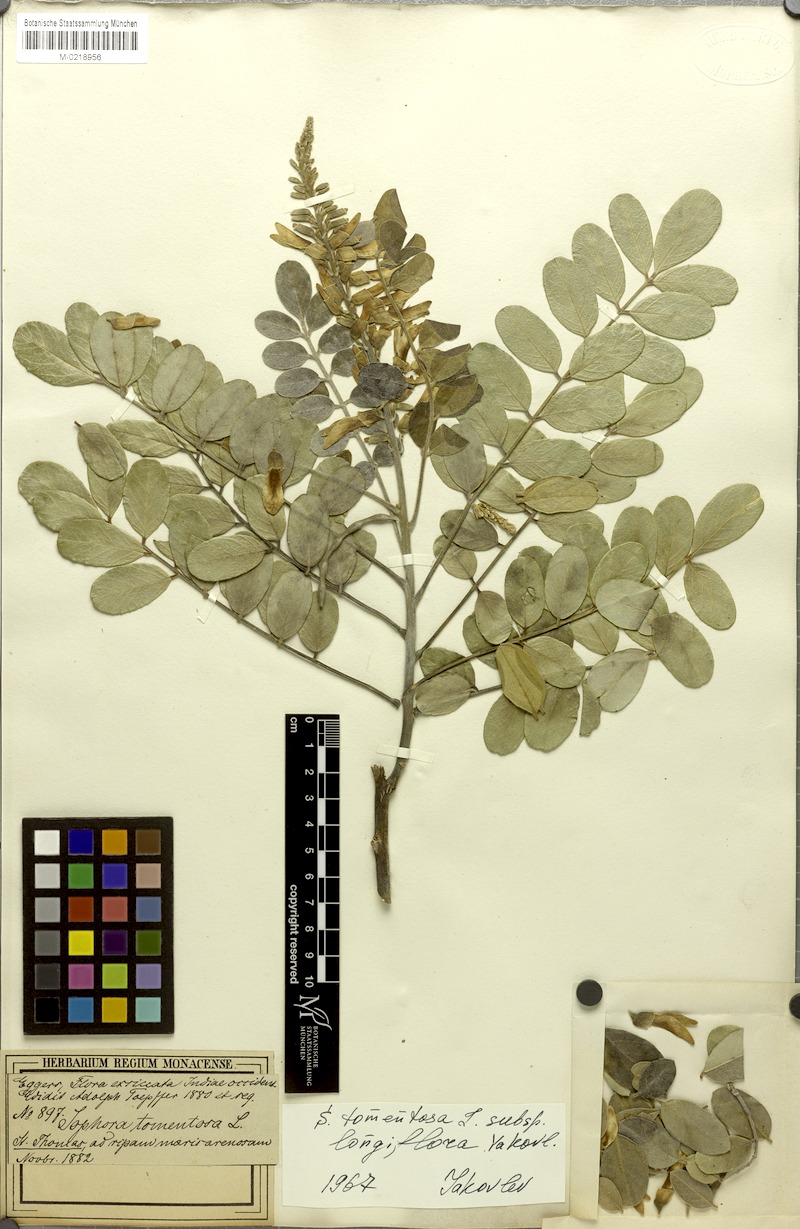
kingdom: Plantae
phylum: Tracheophyta
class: Magnoliopsida
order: Fabales
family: Fabaceae
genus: Sophora
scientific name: Sophora tomentosa
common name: Yellow necklacepod
